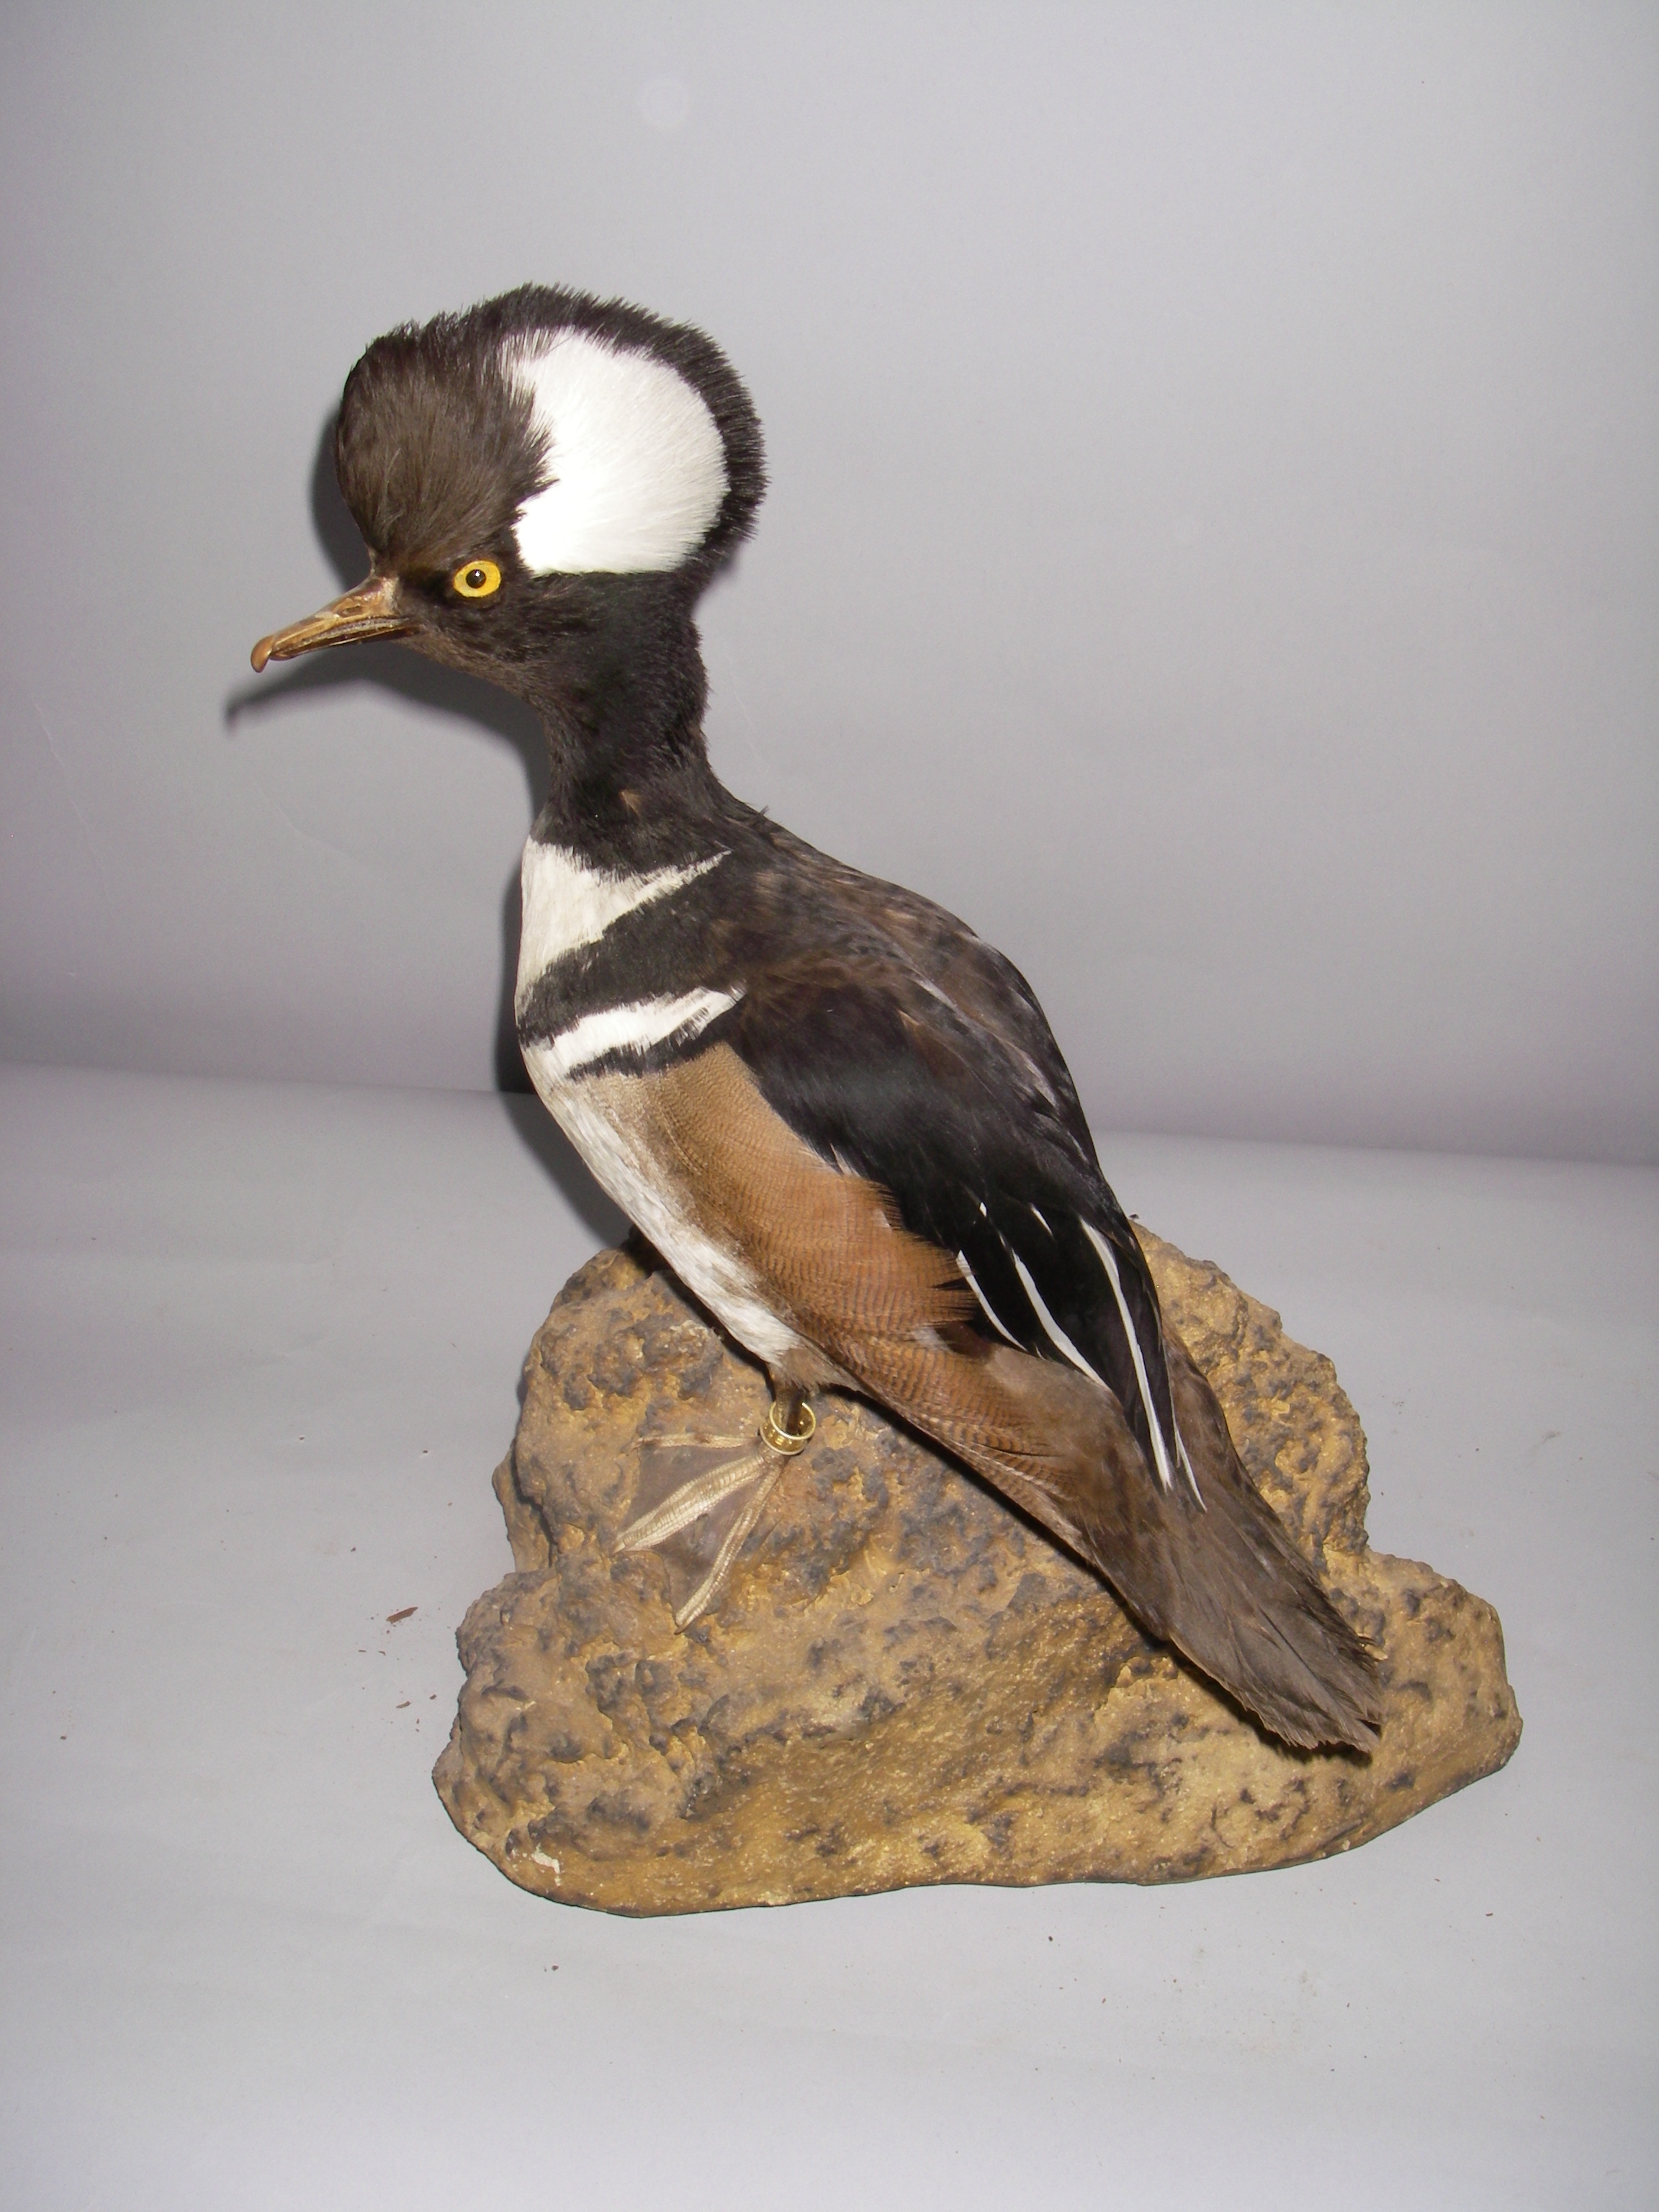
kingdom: Animalia
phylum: Chordata
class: Aves
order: Anseriformes
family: Anatidae
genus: Lophodytes
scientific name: Lophodytes cucullatus
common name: Hooded merganser
